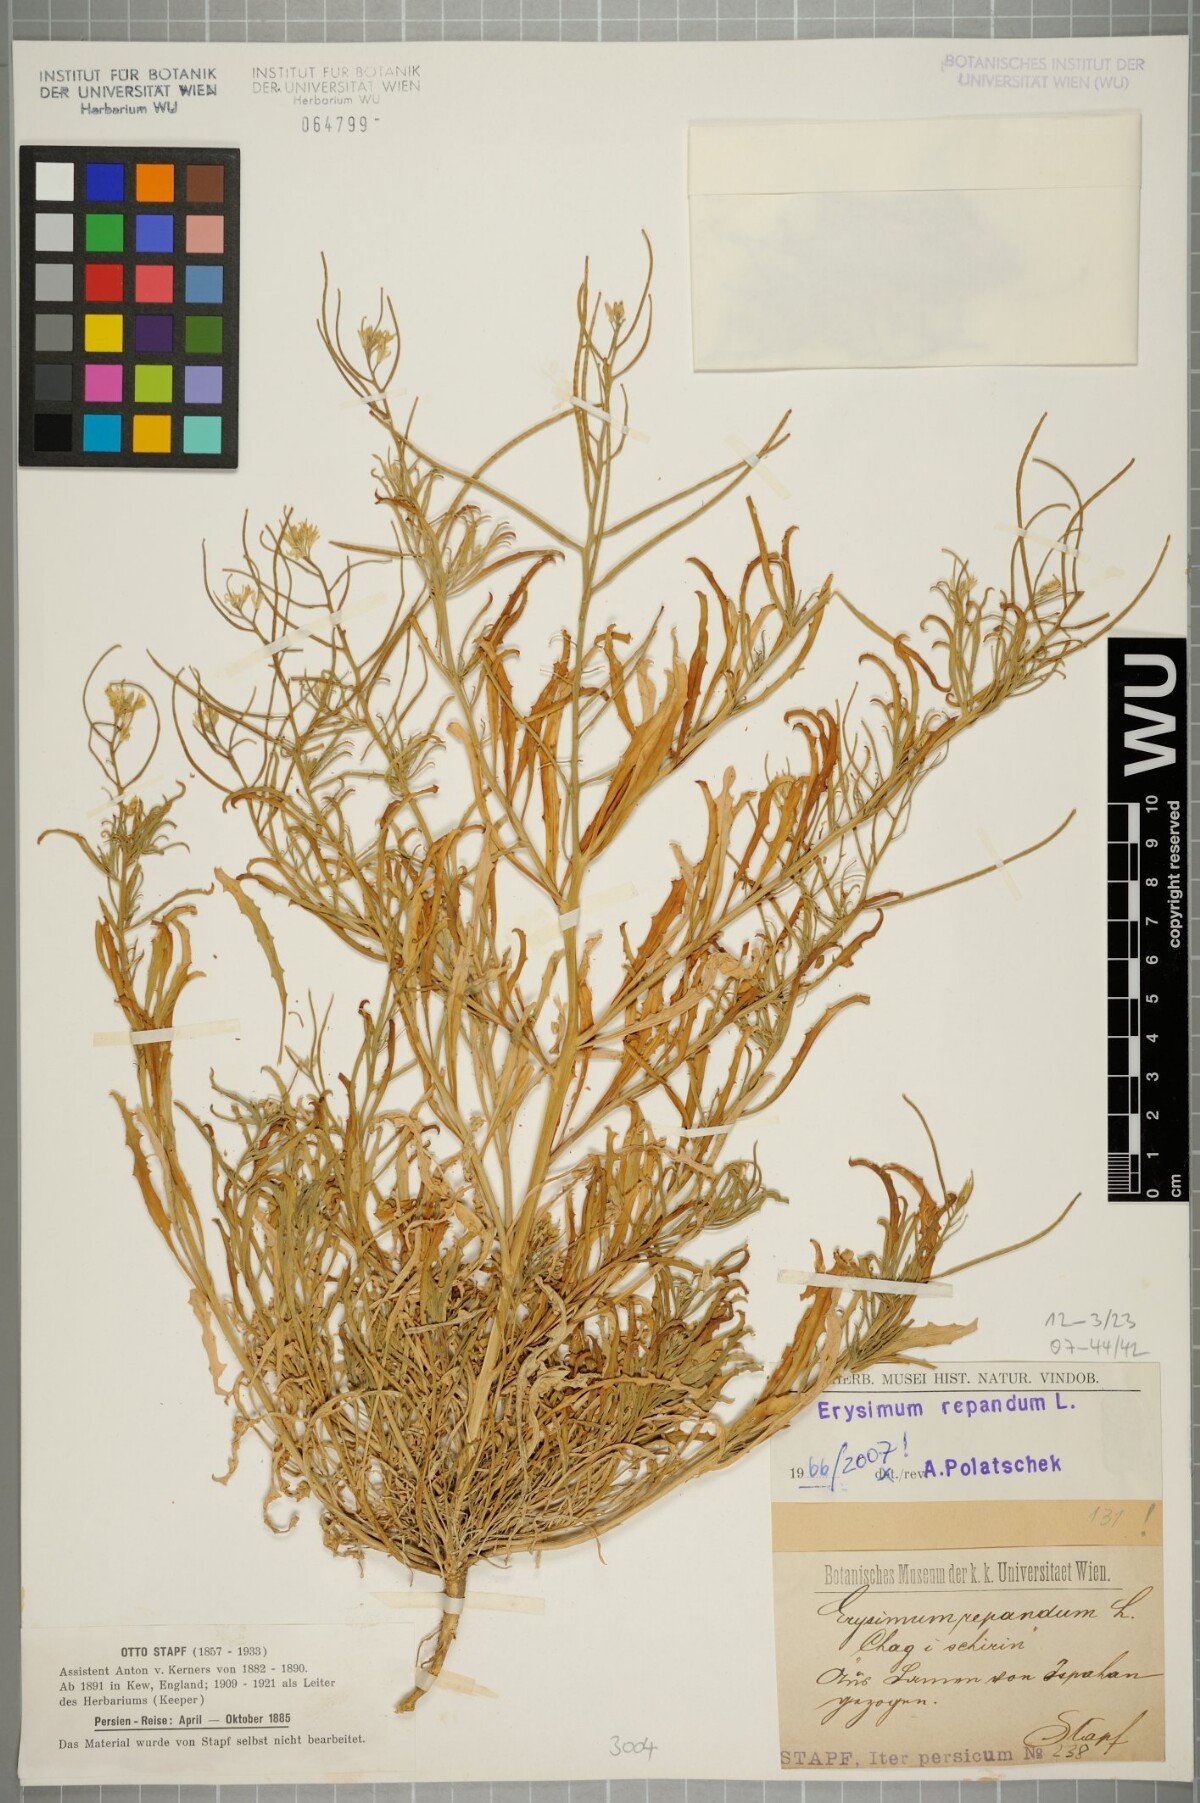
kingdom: Plantae
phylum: Tracheophyta
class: Magnoliopsida
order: Brassicales
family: Brassicaceae
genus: Erysimum
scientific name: Erysimum repandum
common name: Spreading wallflower
